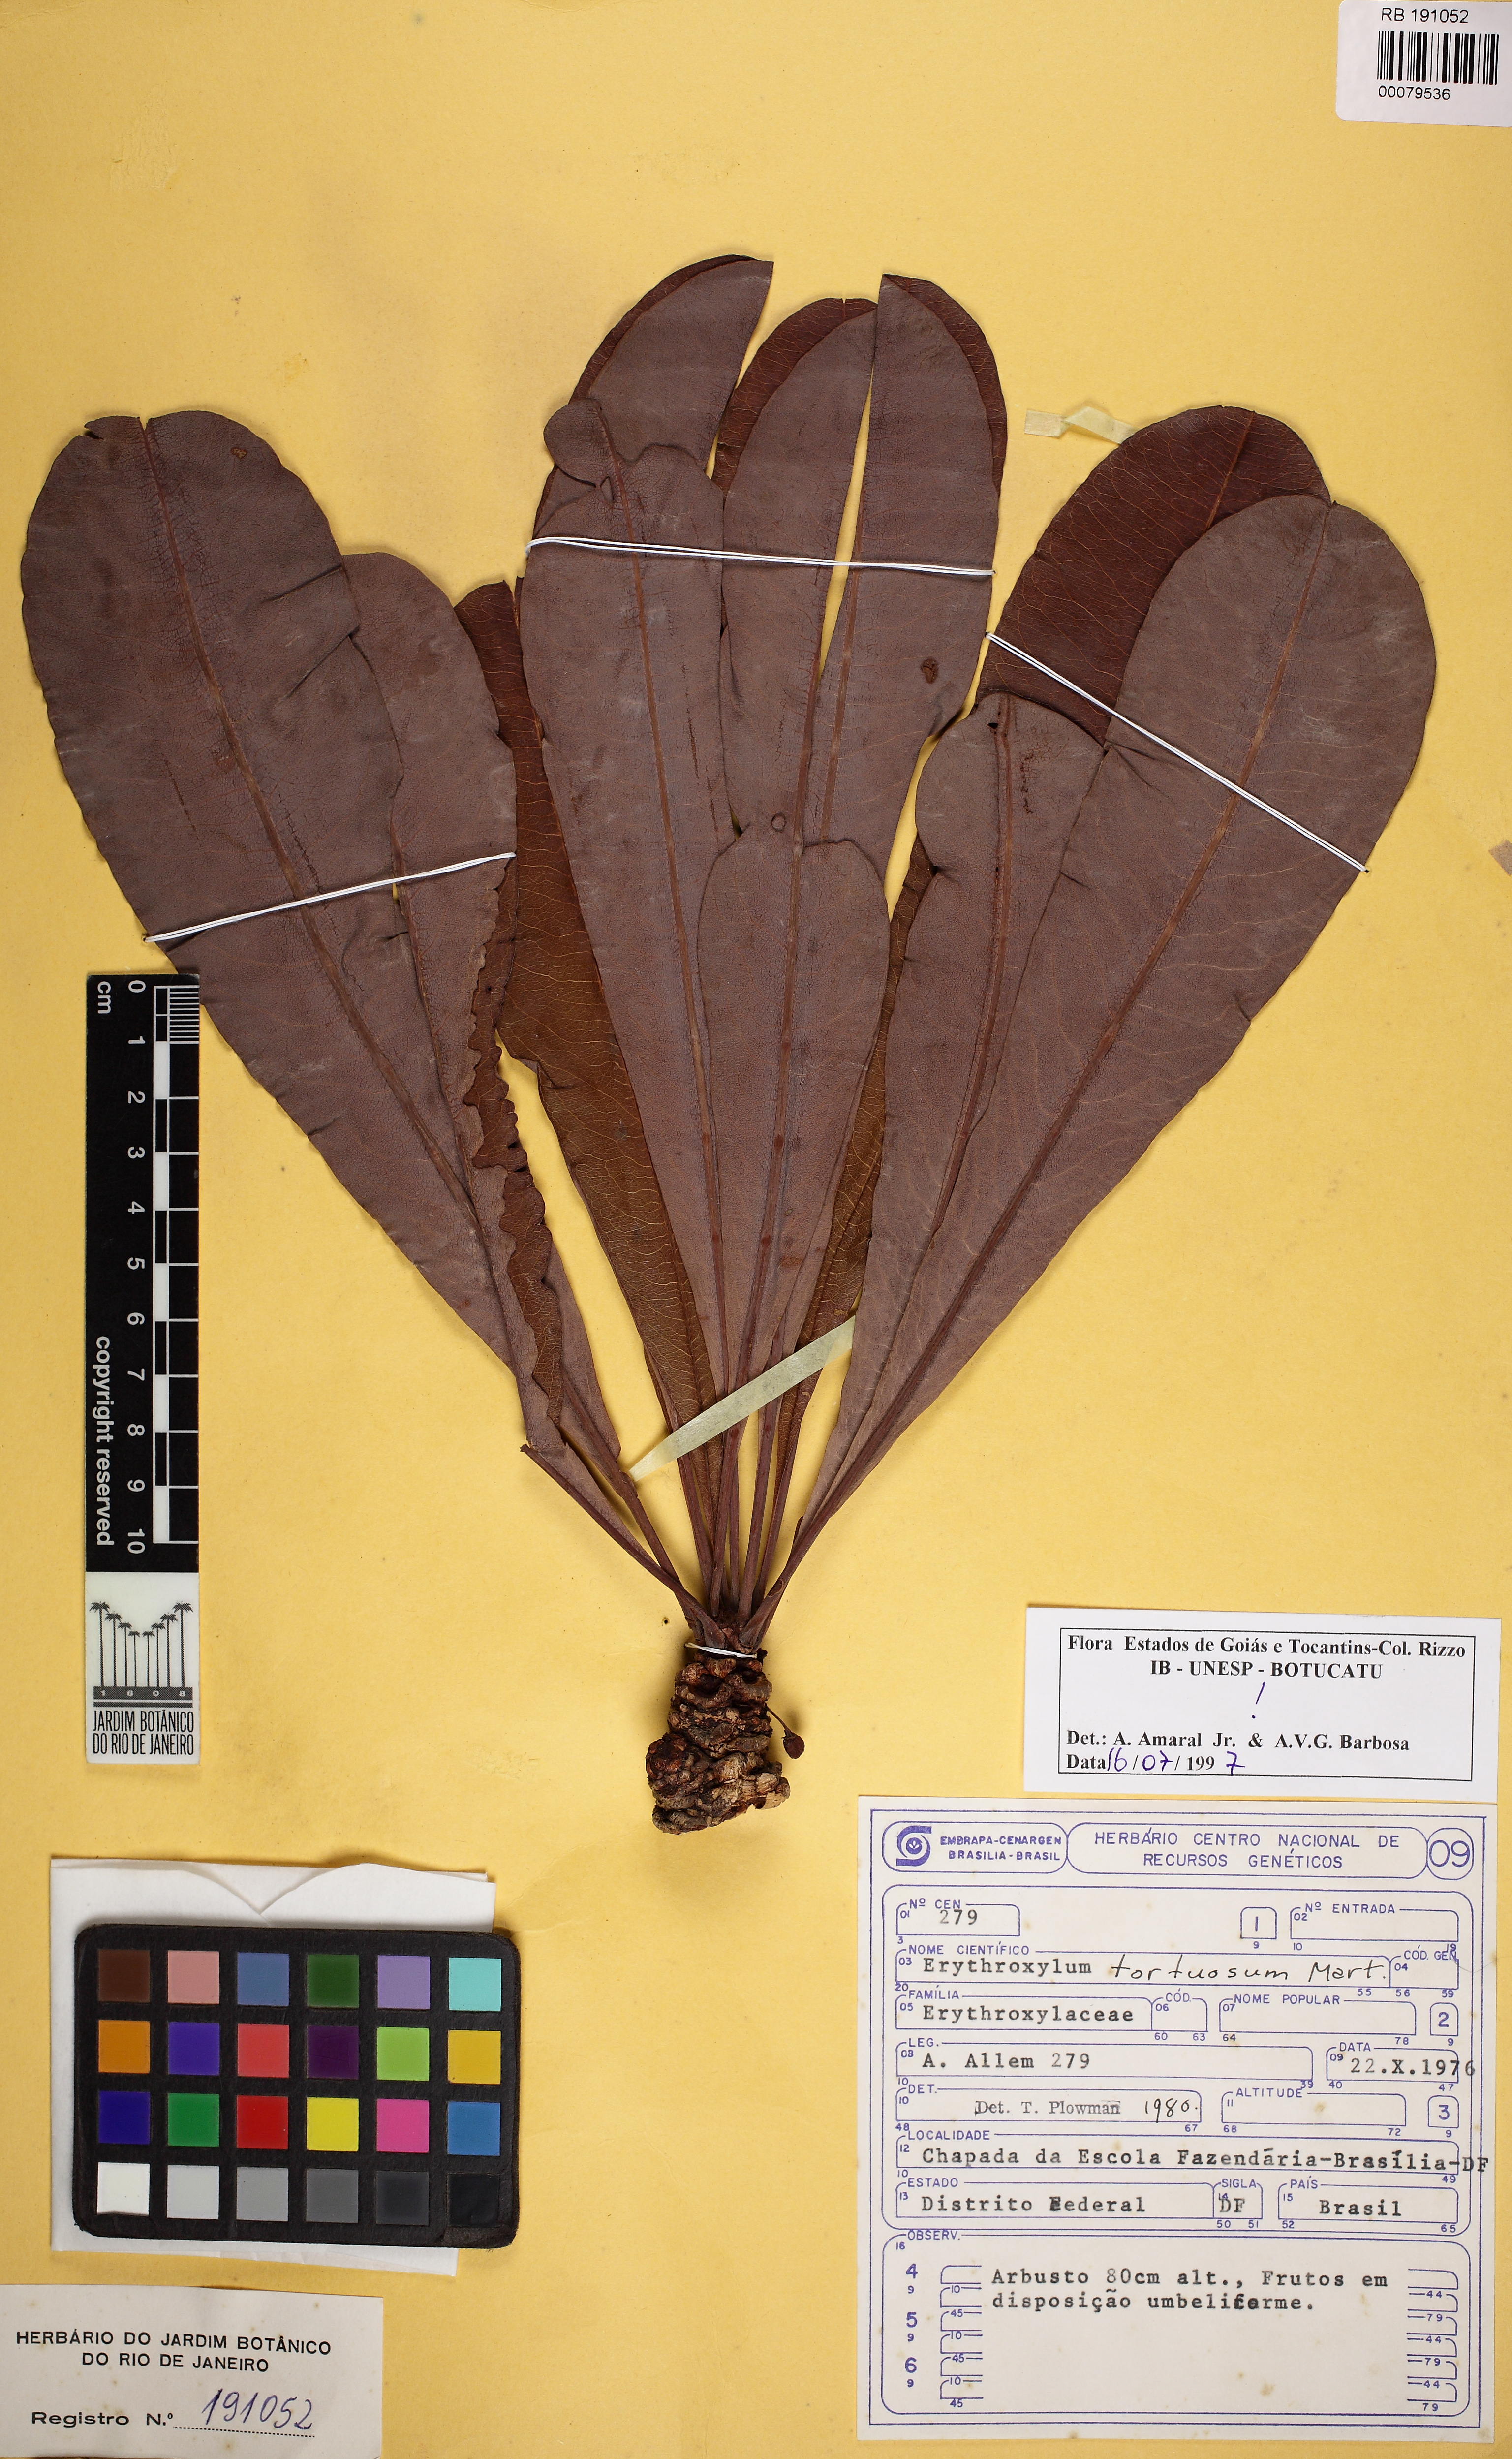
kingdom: Plantae
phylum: Tracheophyta
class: Magnoliopsida
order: Malpighiales
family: Erythroxylaceae
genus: Erythroxylum
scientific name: Erythroxylum tortuosum
